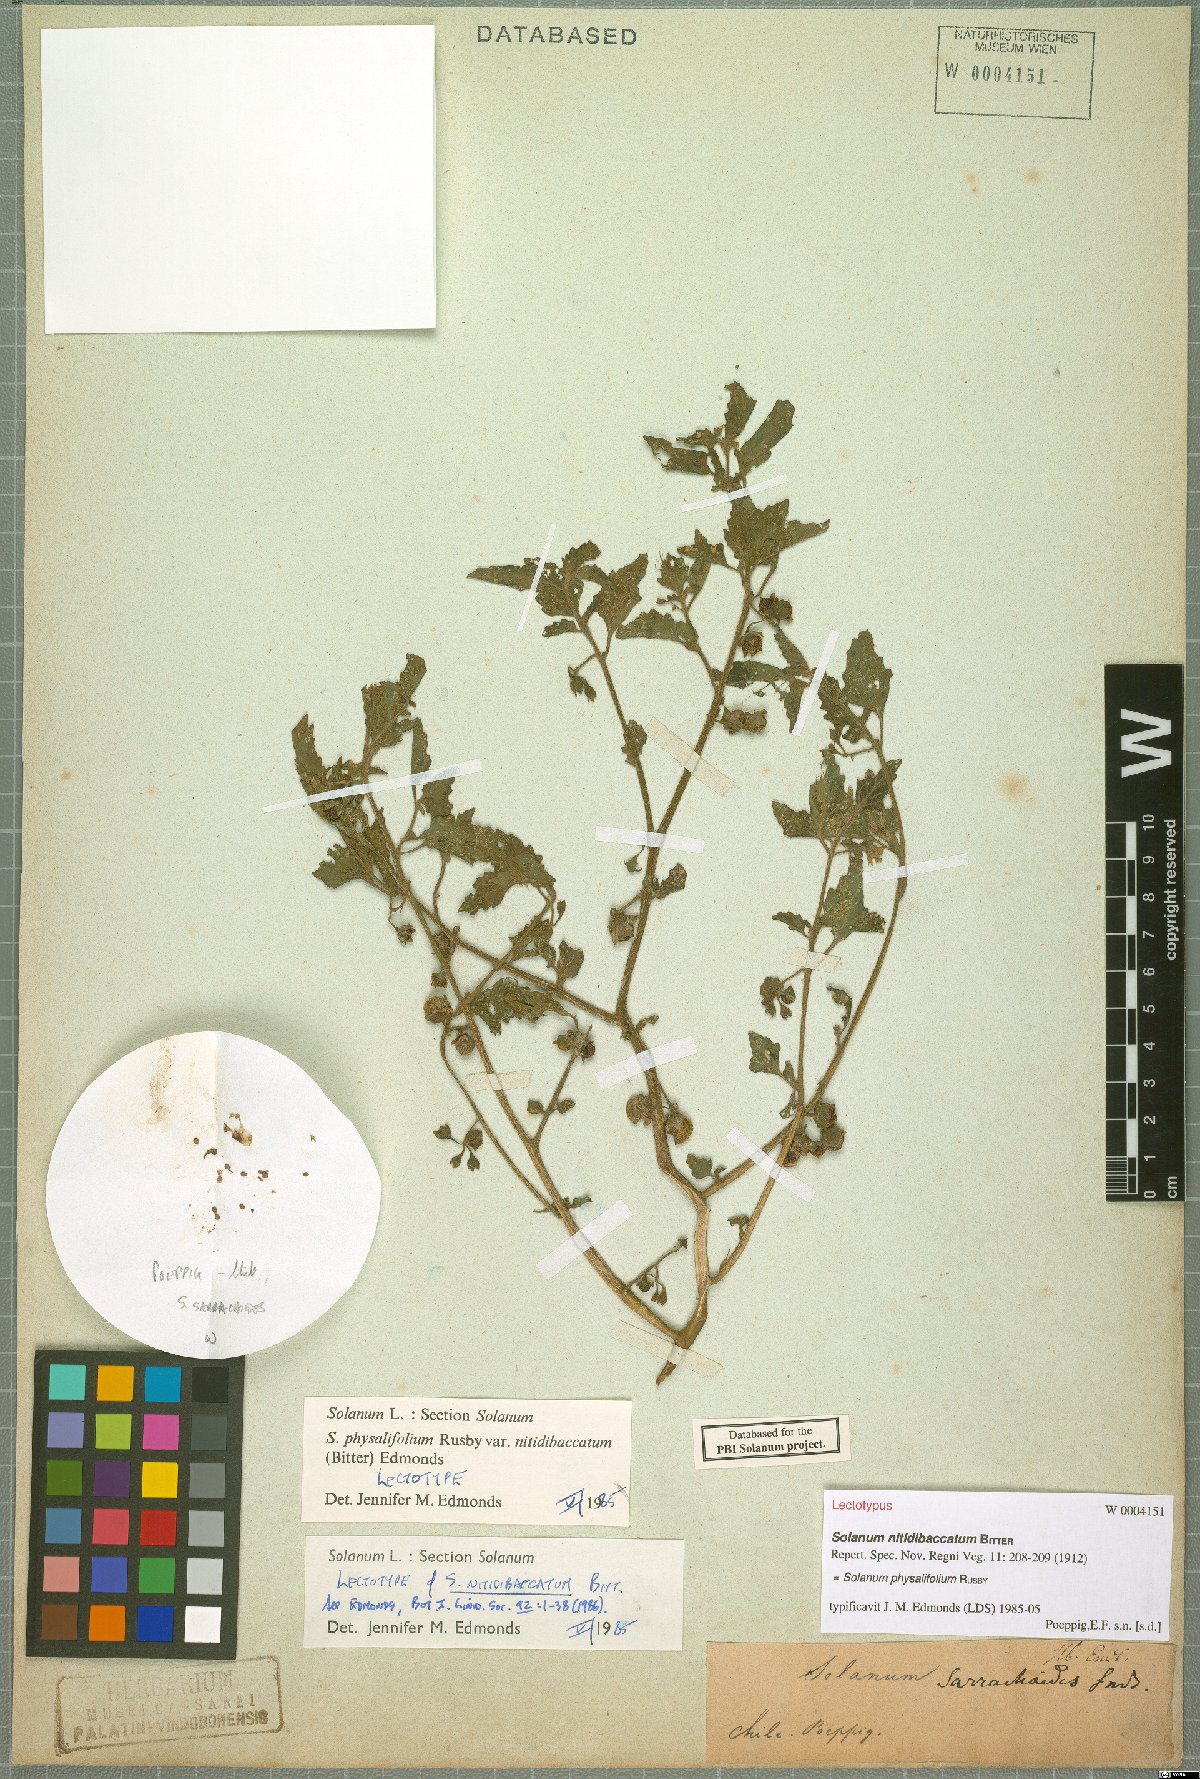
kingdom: Plantae
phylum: Tracheophyta
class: Magnoliopsida
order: Solanales
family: Solanaceae
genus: Solanum
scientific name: Solanum nitidibaccatum
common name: Hairy nightshade
